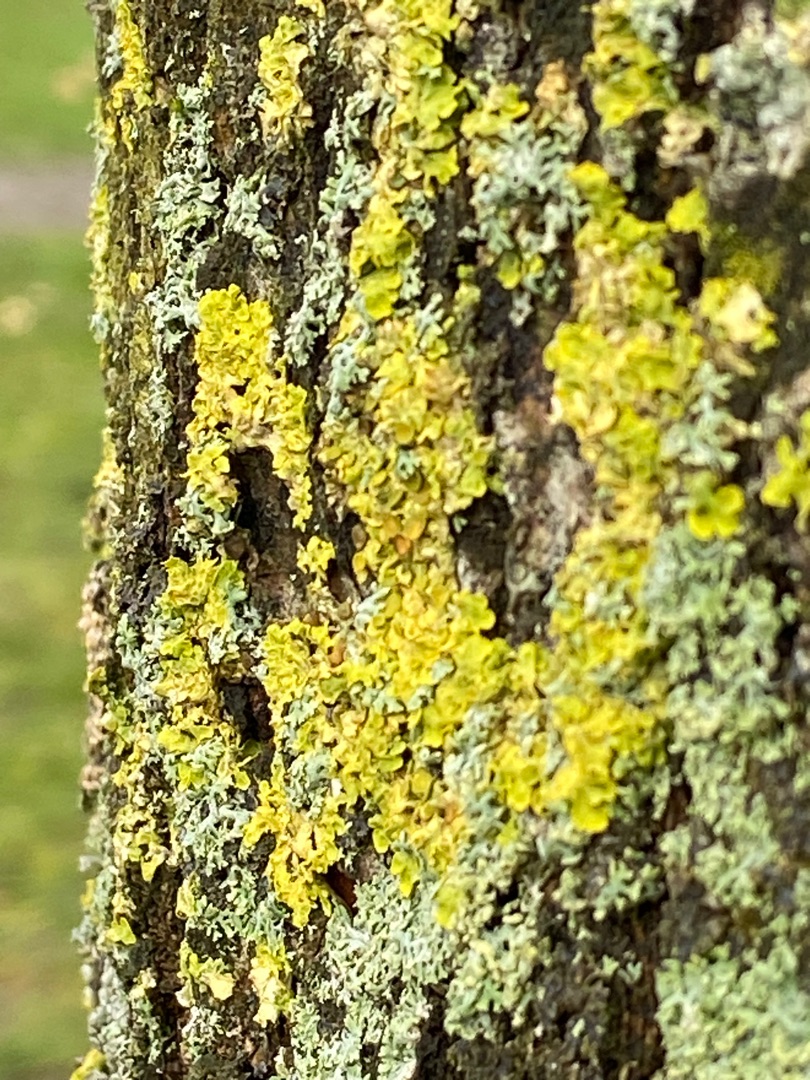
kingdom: Fungi
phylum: Ascomycota
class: Lecanoromycetes
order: Teloschistales
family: Teloschistaceae
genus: Xanthoria
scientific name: Xanthoria parietina
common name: Almindelig væggelav
